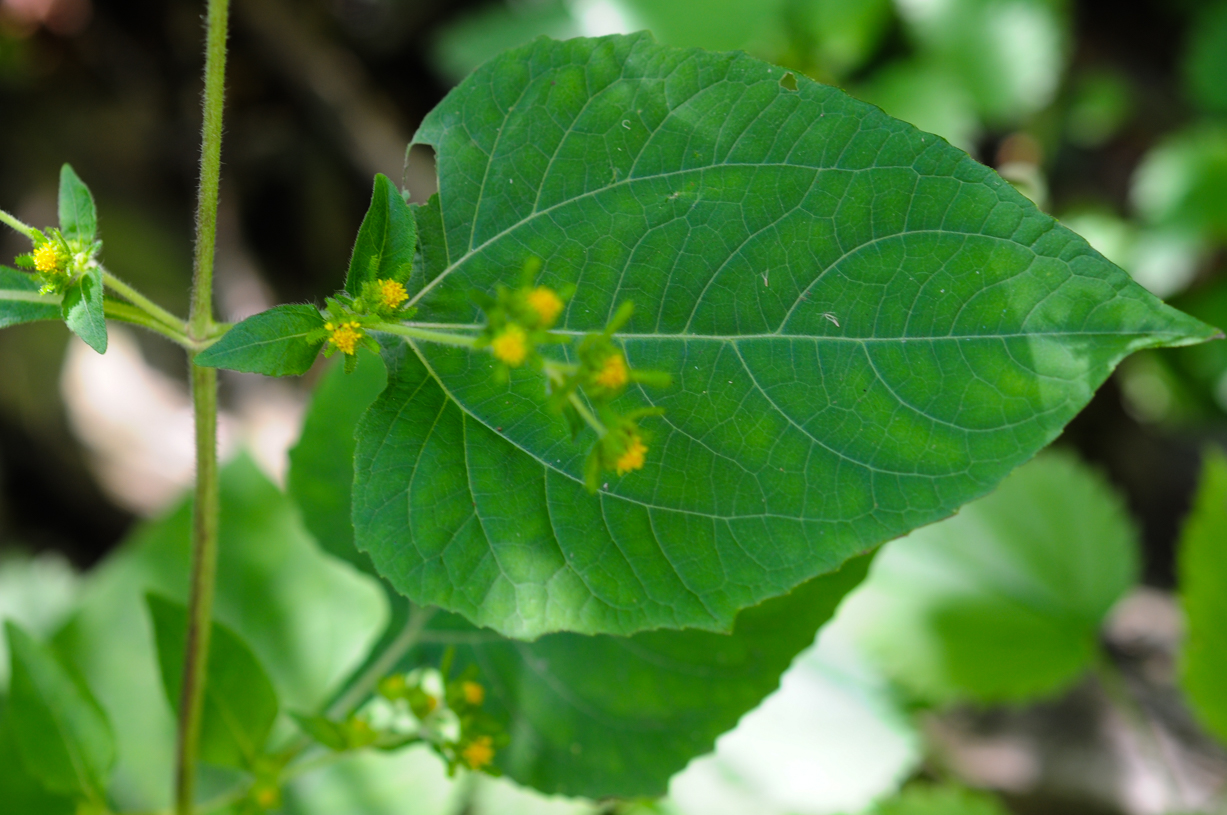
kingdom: Plantae
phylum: Tracheophyta
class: Magnoliopsida
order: Asterales
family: Asteraceae
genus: Sigesbeckia
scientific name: Sigesbeckia orientalis
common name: Eastern st paul's-wort
